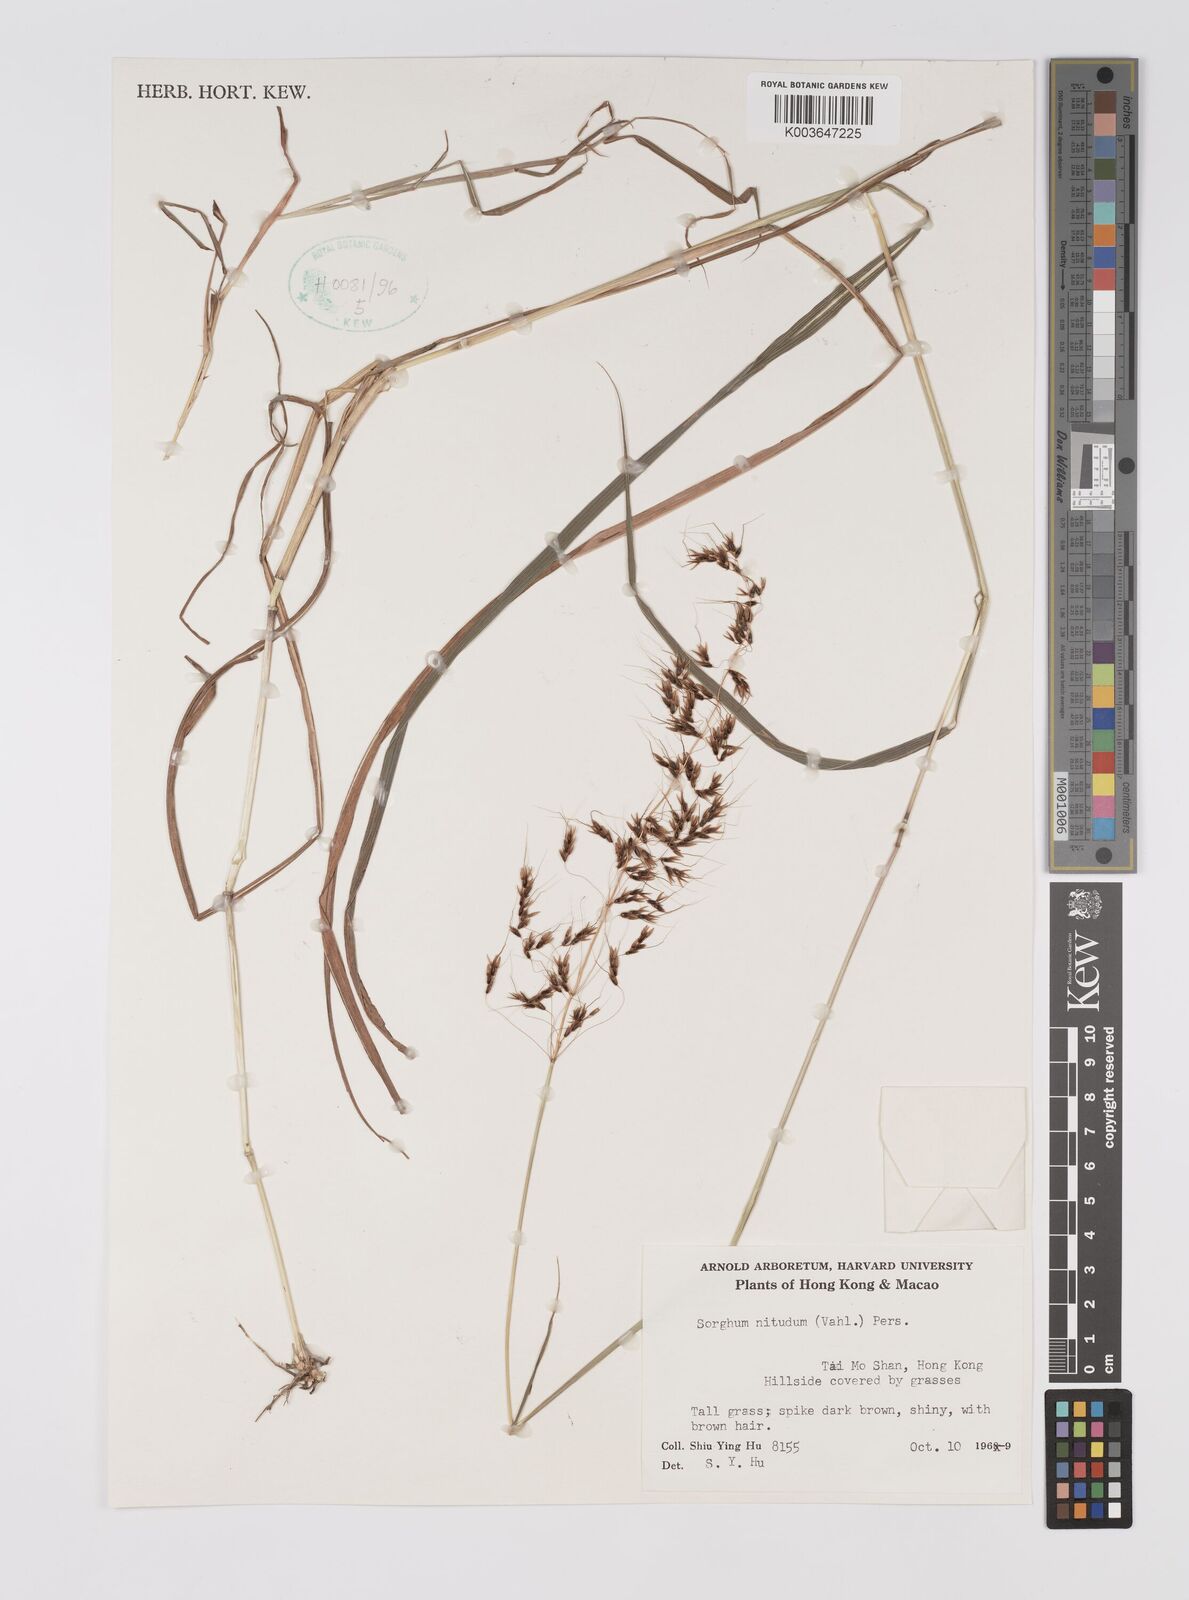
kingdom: Plantae
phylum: Tracheophyta
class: Liliopsida
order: Poales
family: Poaceae
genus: Sorghum
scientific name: Sorghum nitidum
